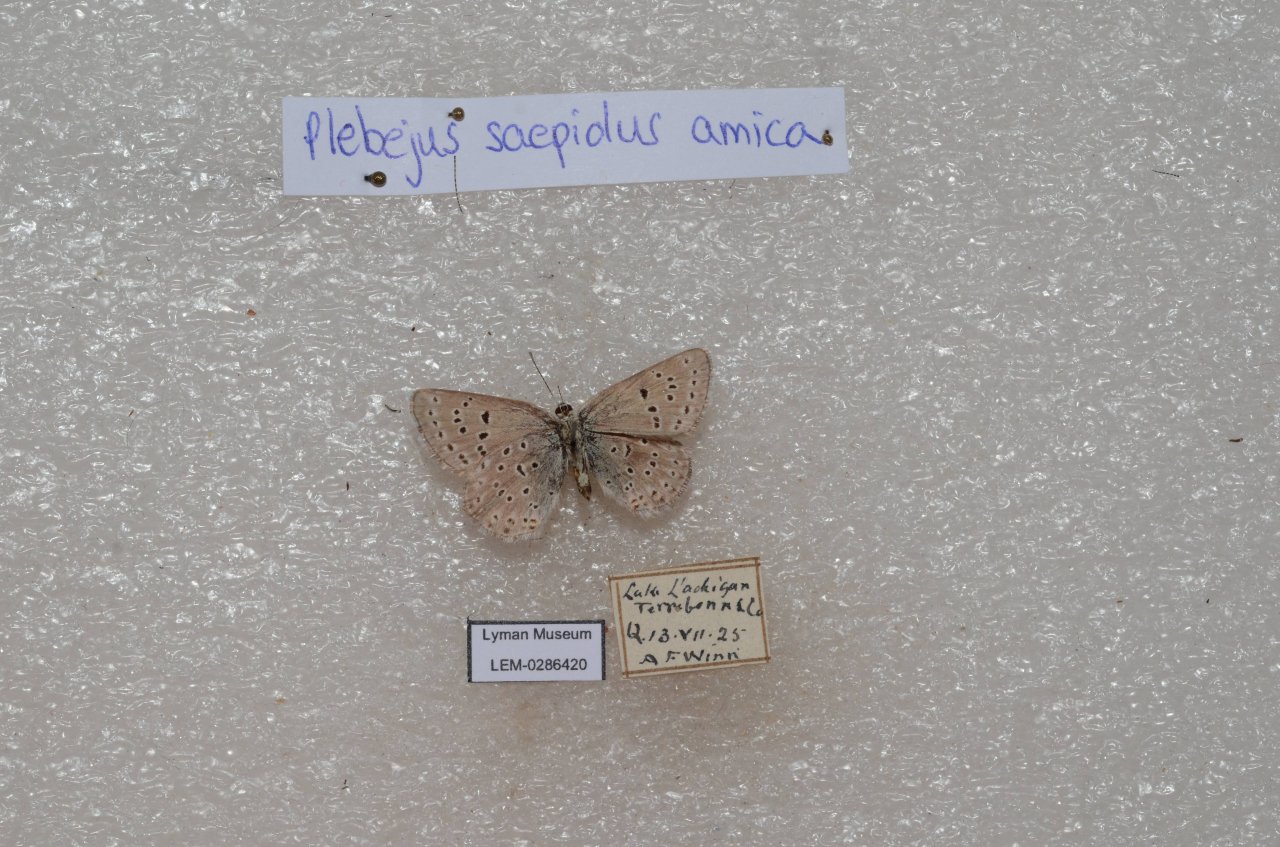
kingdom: Animalia
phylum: Arthropoda
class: Insecta
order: Lepidoptera
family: Lycaenidae
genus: Plebejus
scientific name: Plebejus saepiolus
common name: Greenish Blue
